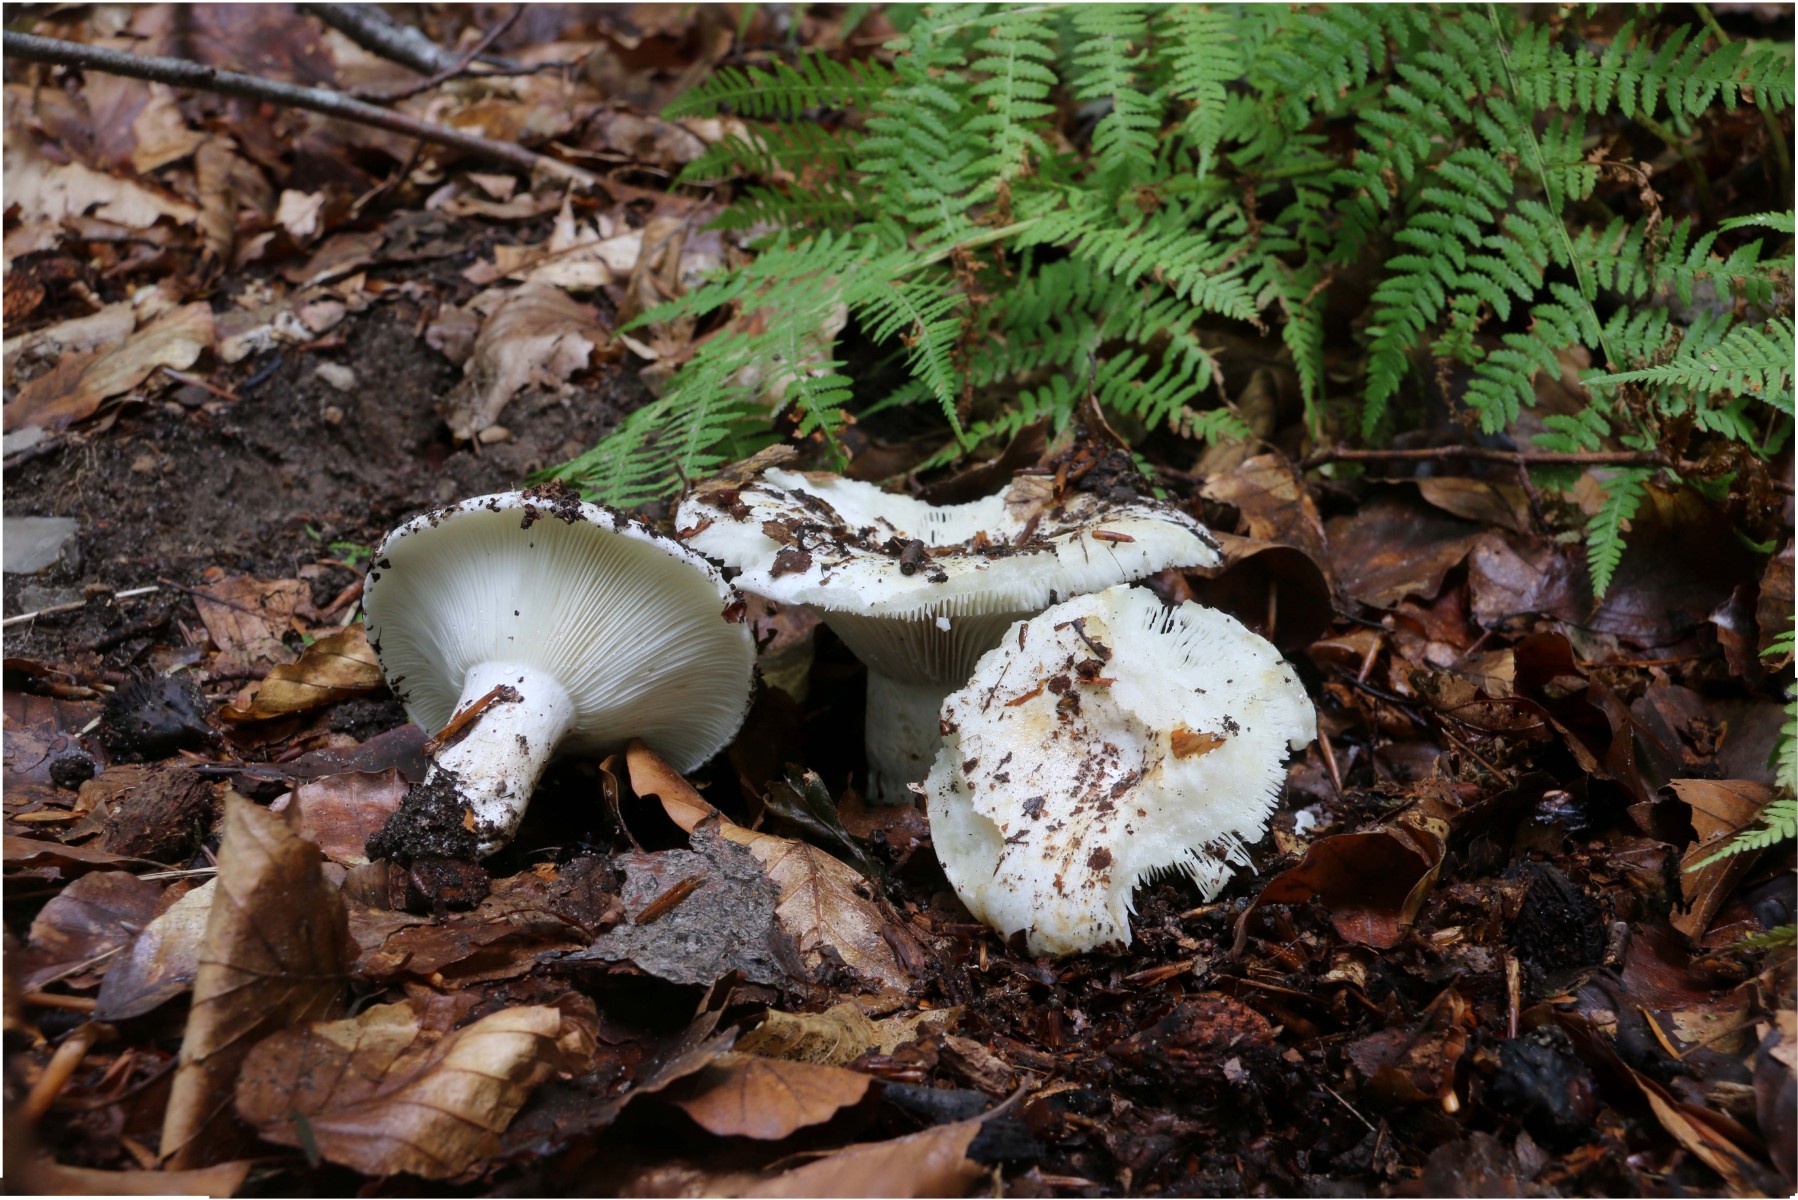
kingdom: Fungi
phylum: Basidiomycota
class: Agaricomycetes
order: Russulales
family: Russulaceae
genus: Russula
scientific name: Russula chloroides
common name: grønhalset tragt-skørhat
